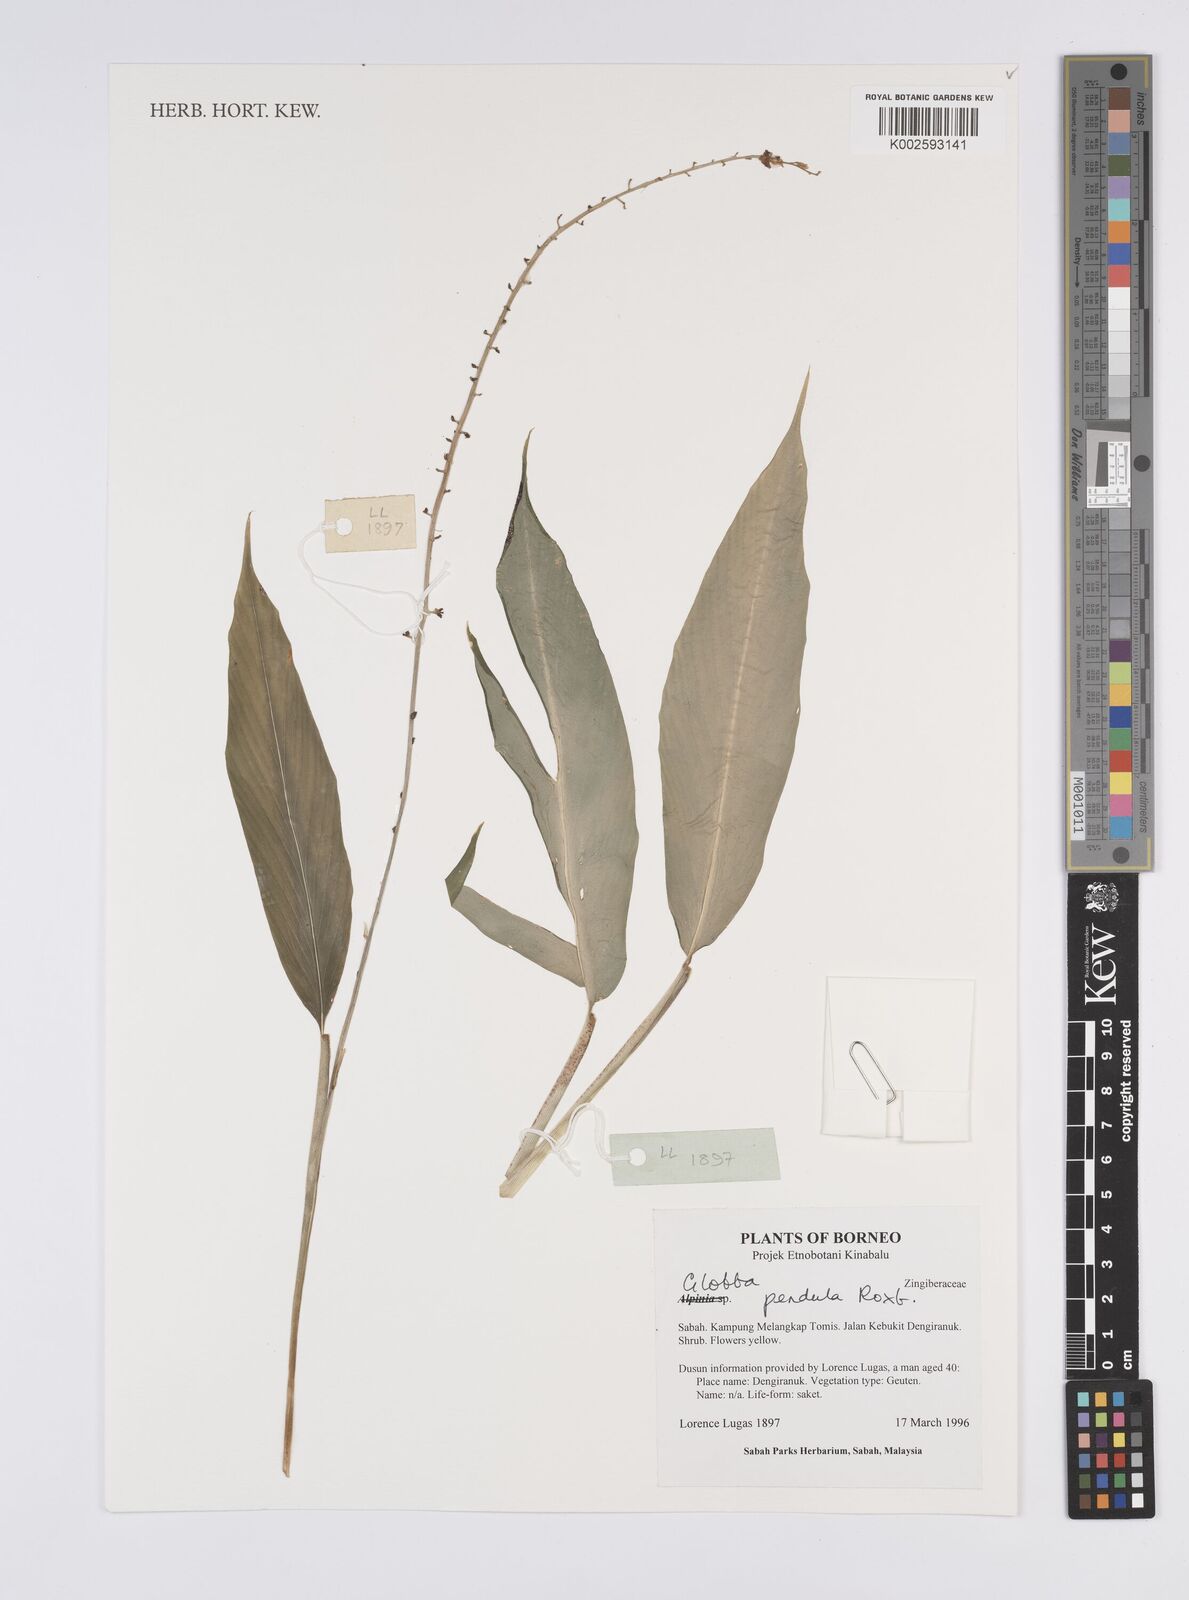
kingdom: Plantae
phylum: Tracheophyta
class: Liliopsida
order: Zingiberales
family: Zingiberaceae
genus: Globba
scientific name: Globba pendula
